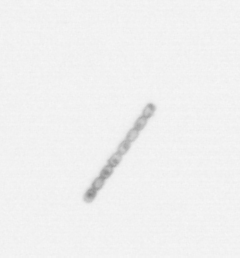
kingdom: Chromista
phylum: Ochrophyta
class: Bacillariophyceae
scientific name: Bacillariophyceae
